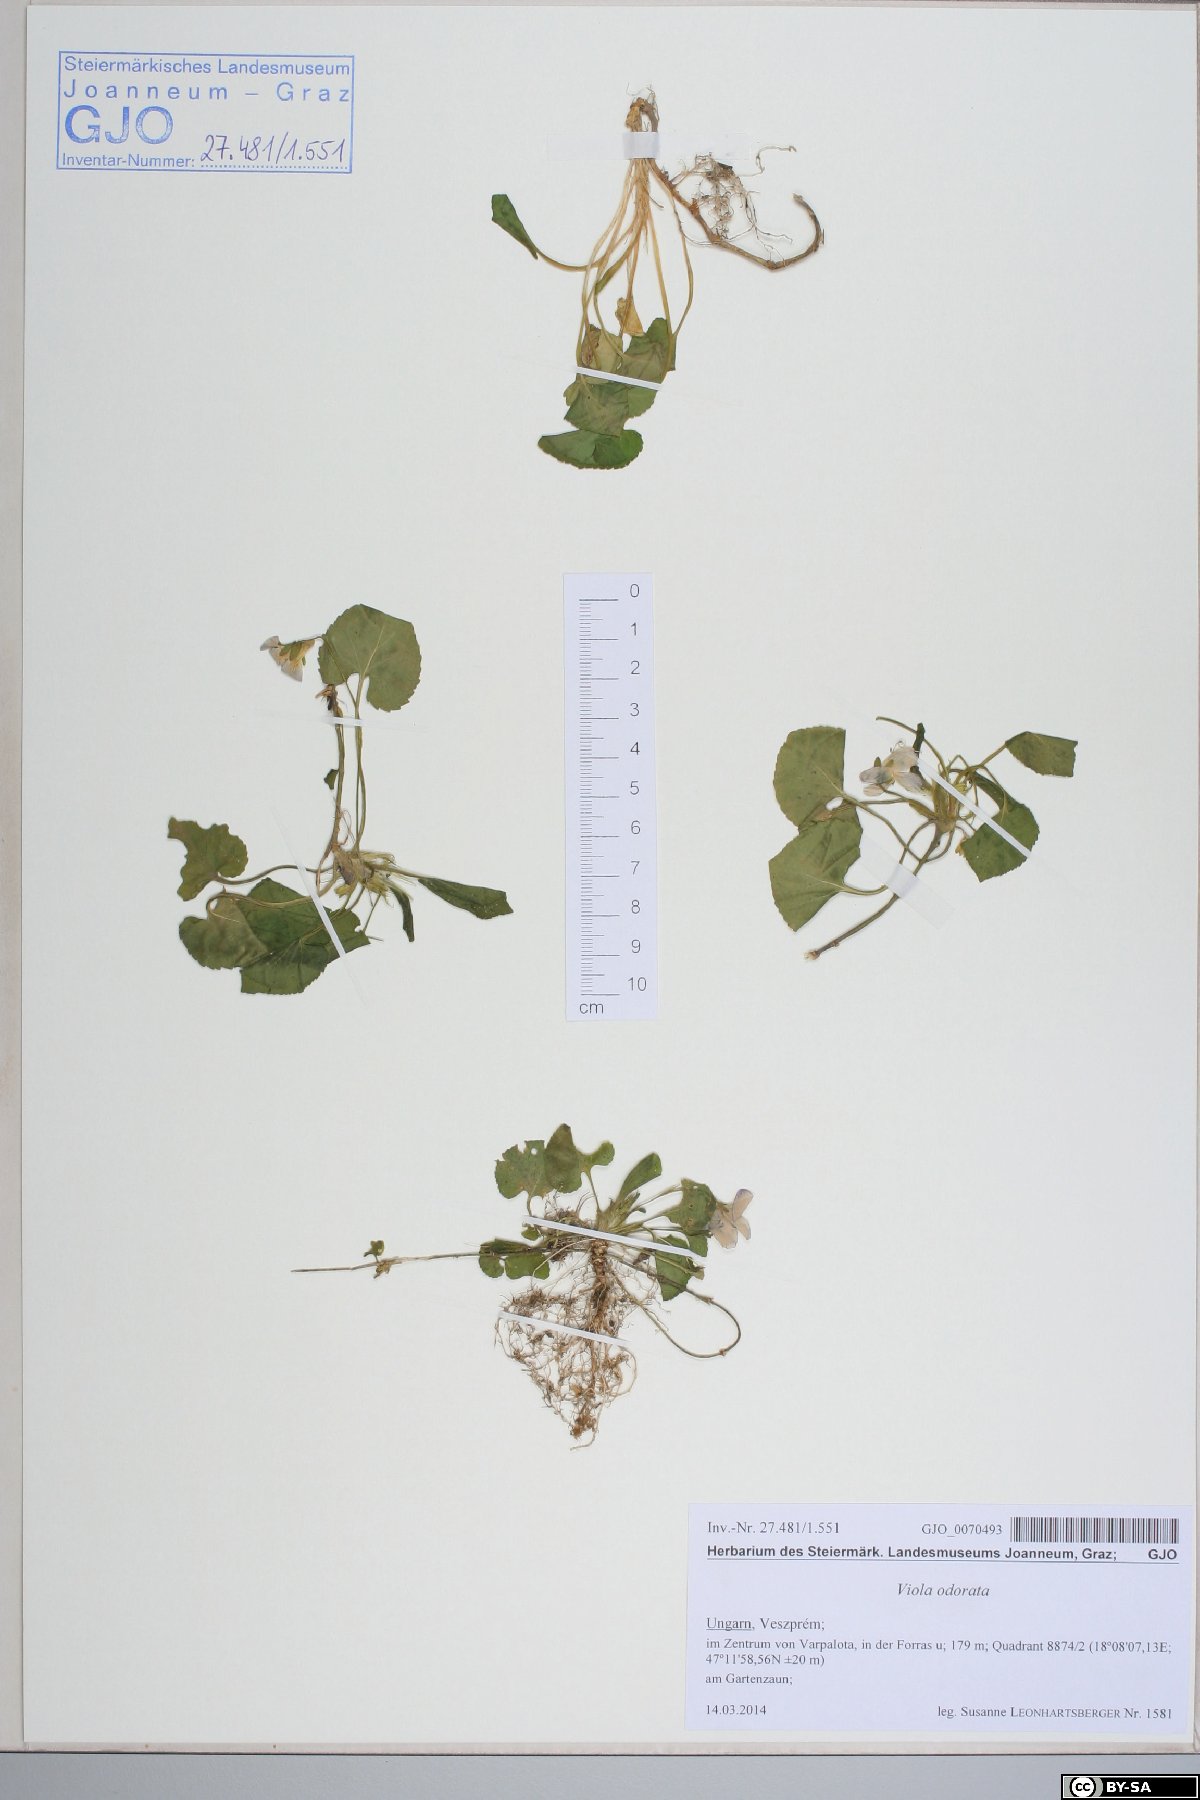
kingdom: Plantae
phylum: Tracheophyta
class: Magnoliopsida
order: Malpighiales
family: Violaceae
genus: Viola
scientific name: Viola odorata
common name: Sweet violet
